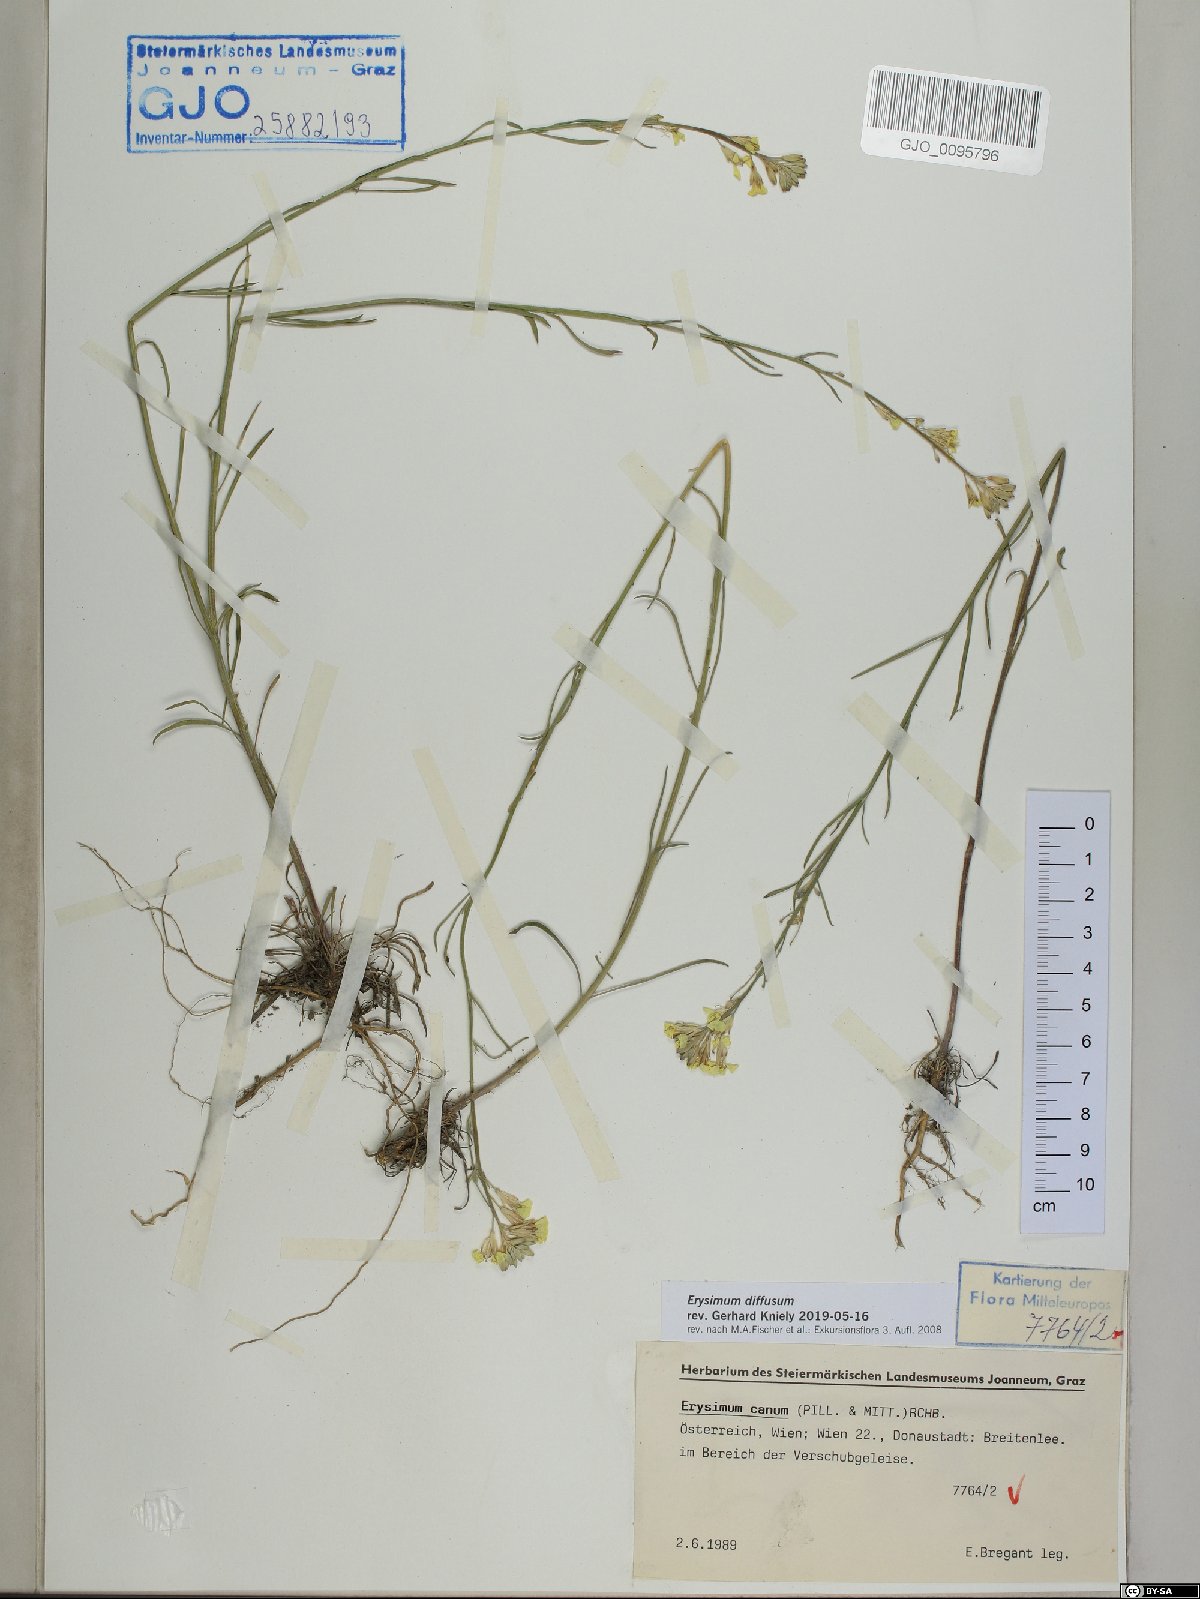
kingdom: Plantae
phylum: Tracheophyta
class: Magnoliopsida
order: Brassicales
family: Brassicaceae
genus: Erysimum
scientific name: Erysimum diffusum
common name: Diffuse wallflower
